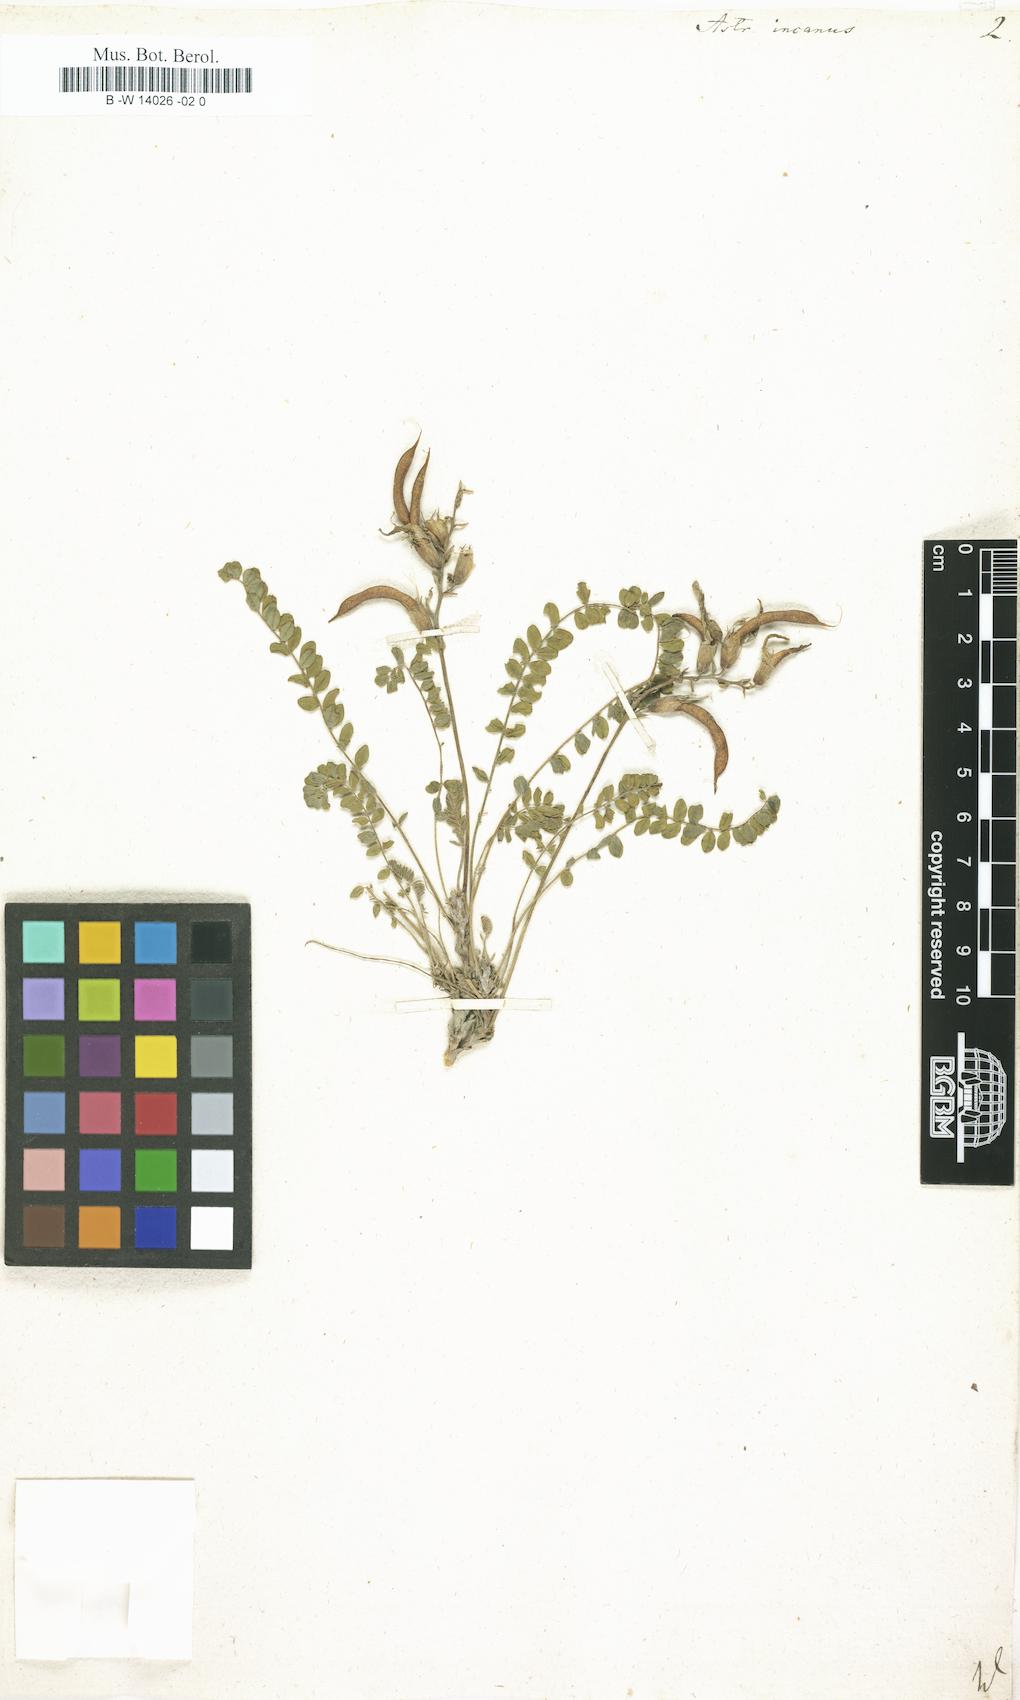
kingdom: Plantae
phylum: Tracheophyta
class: Magnoliopsida
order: Fabales
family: Fabaceae
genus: Astragalus
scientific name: Astragalus incanus
